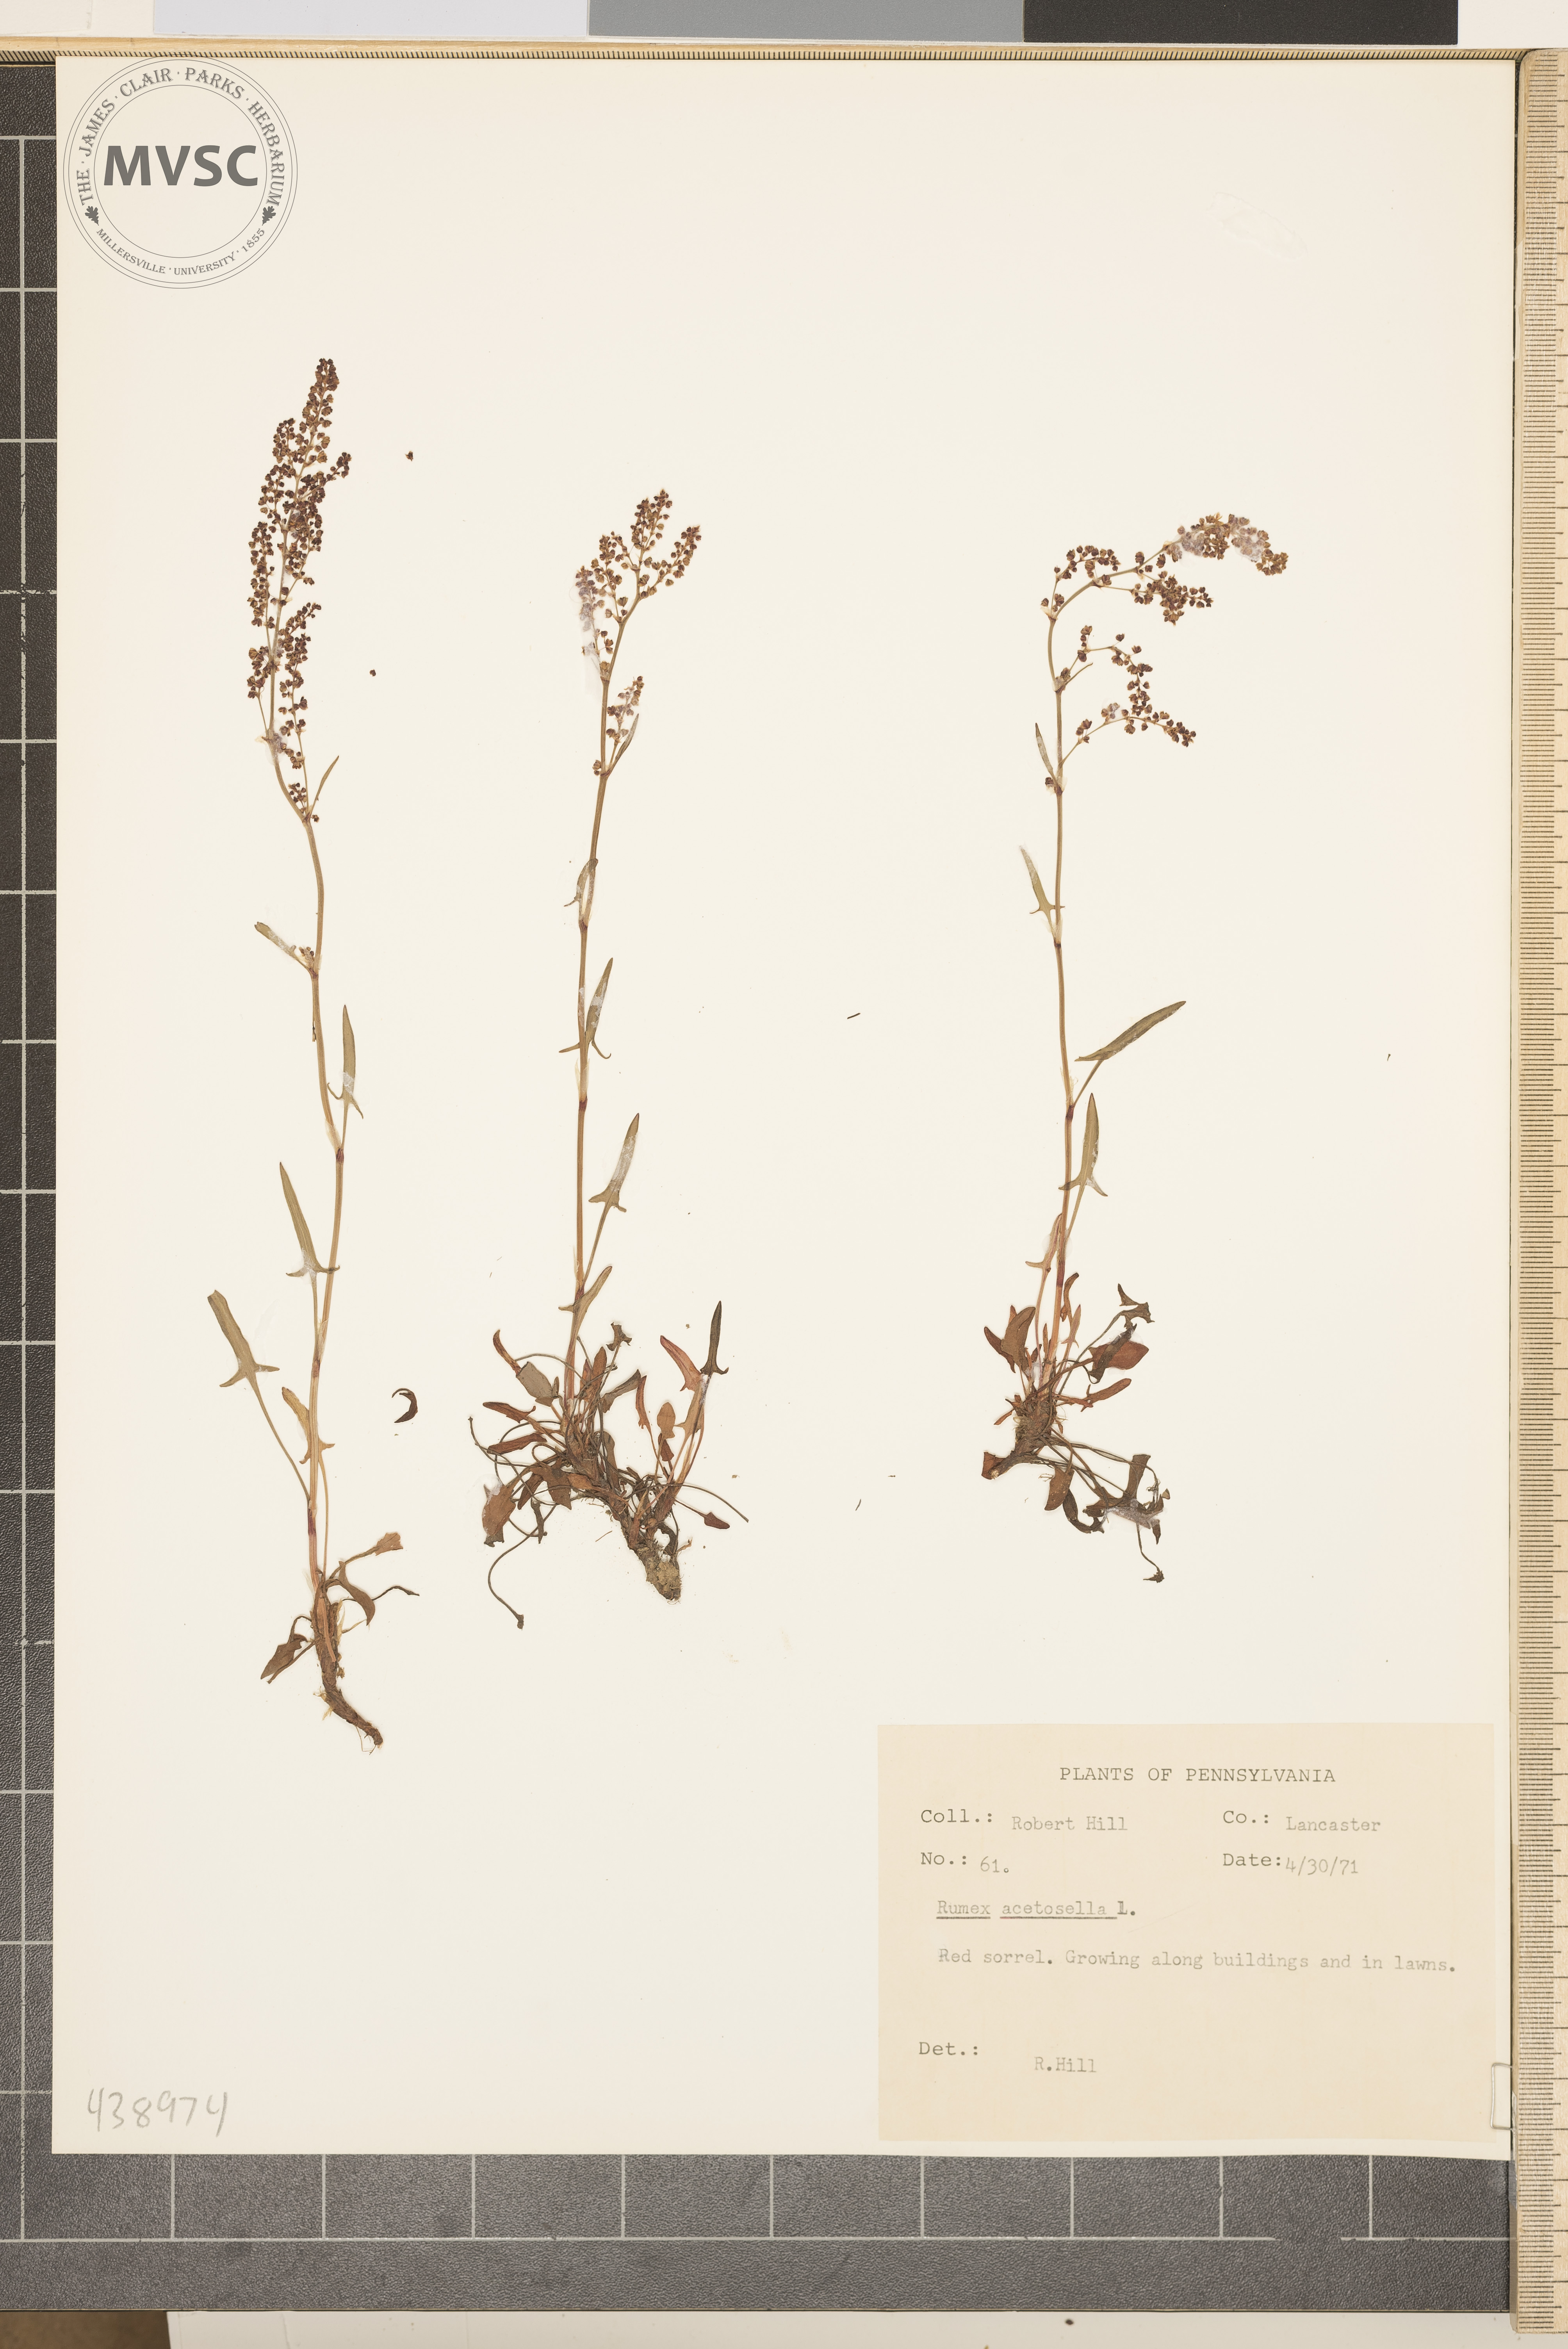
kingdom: Plantae
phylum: Tracheophyta
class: Magnoliopsida
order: Caryophyllales
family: Polygonaceae
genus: Rumex
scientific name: Rumex acetosella
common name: Red sorrel
